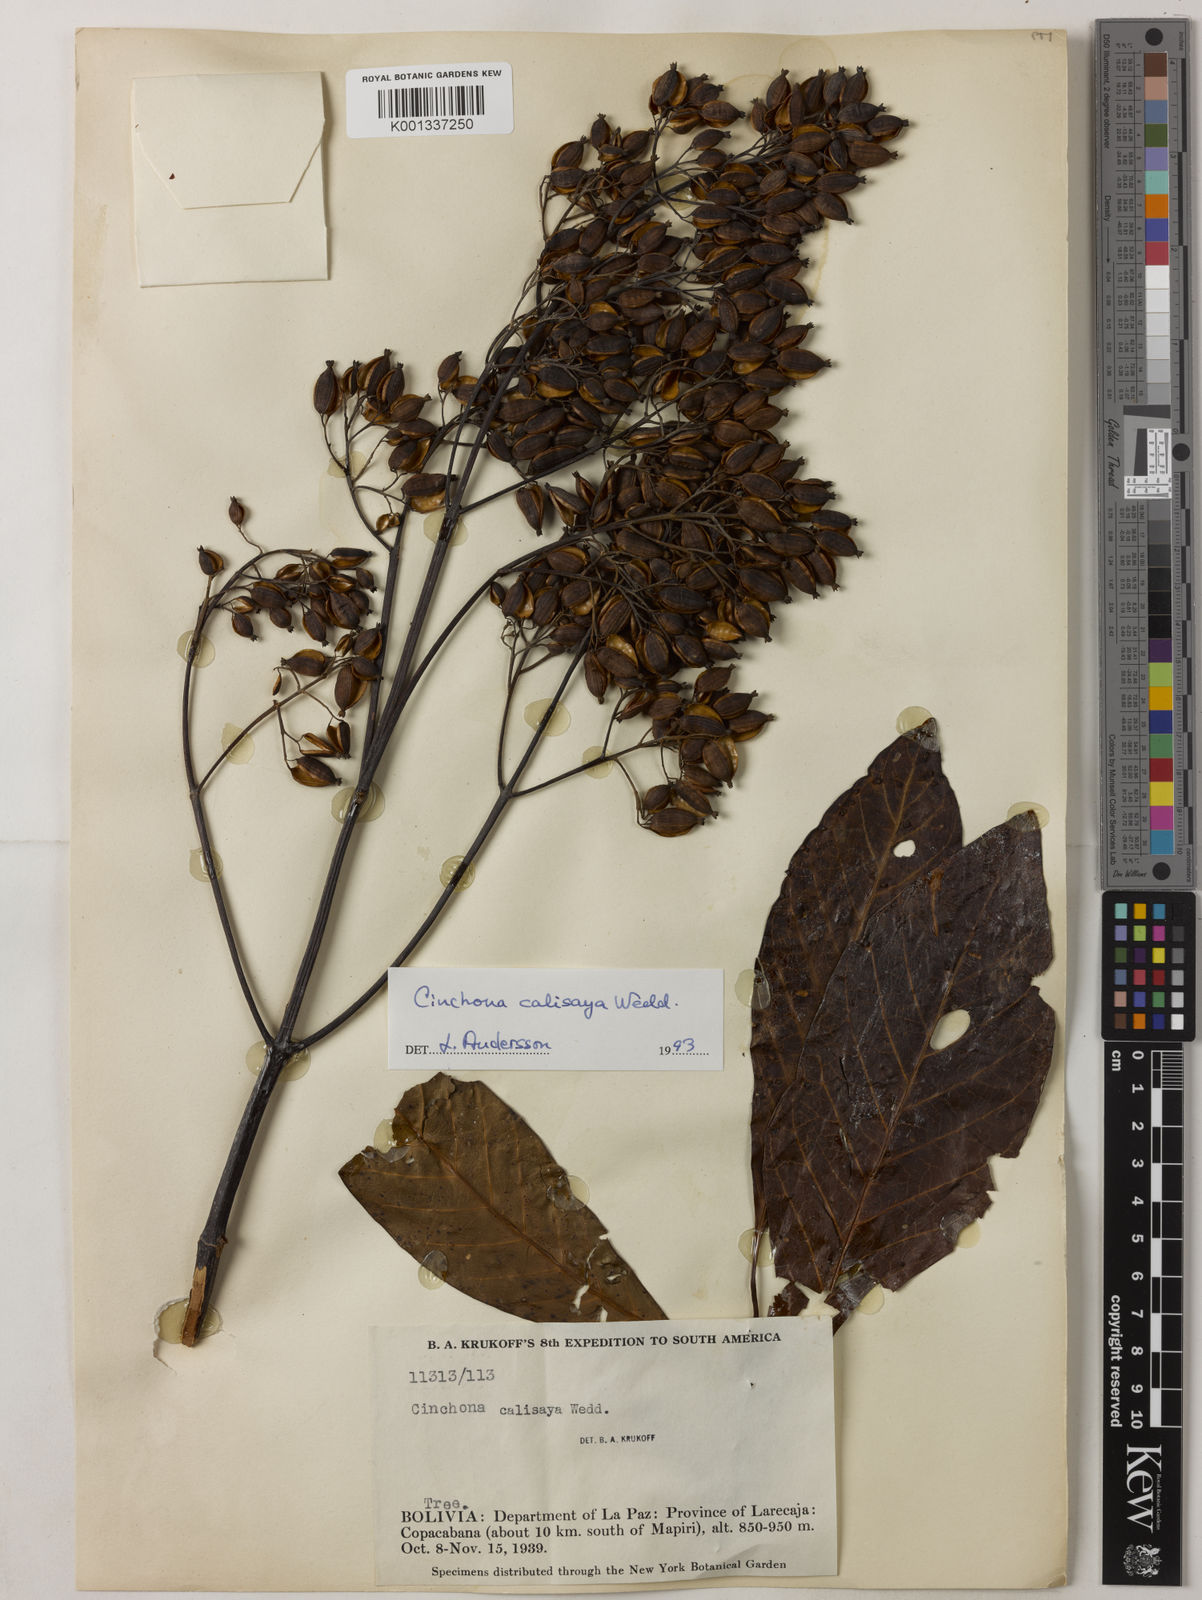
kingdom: Plantae
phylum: Tracheophyta
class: Magnoliopsida
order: Gentianales
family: Rubiaceae
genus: Cinchona
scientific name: Cinchona calisaya
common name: Ledgerbark
